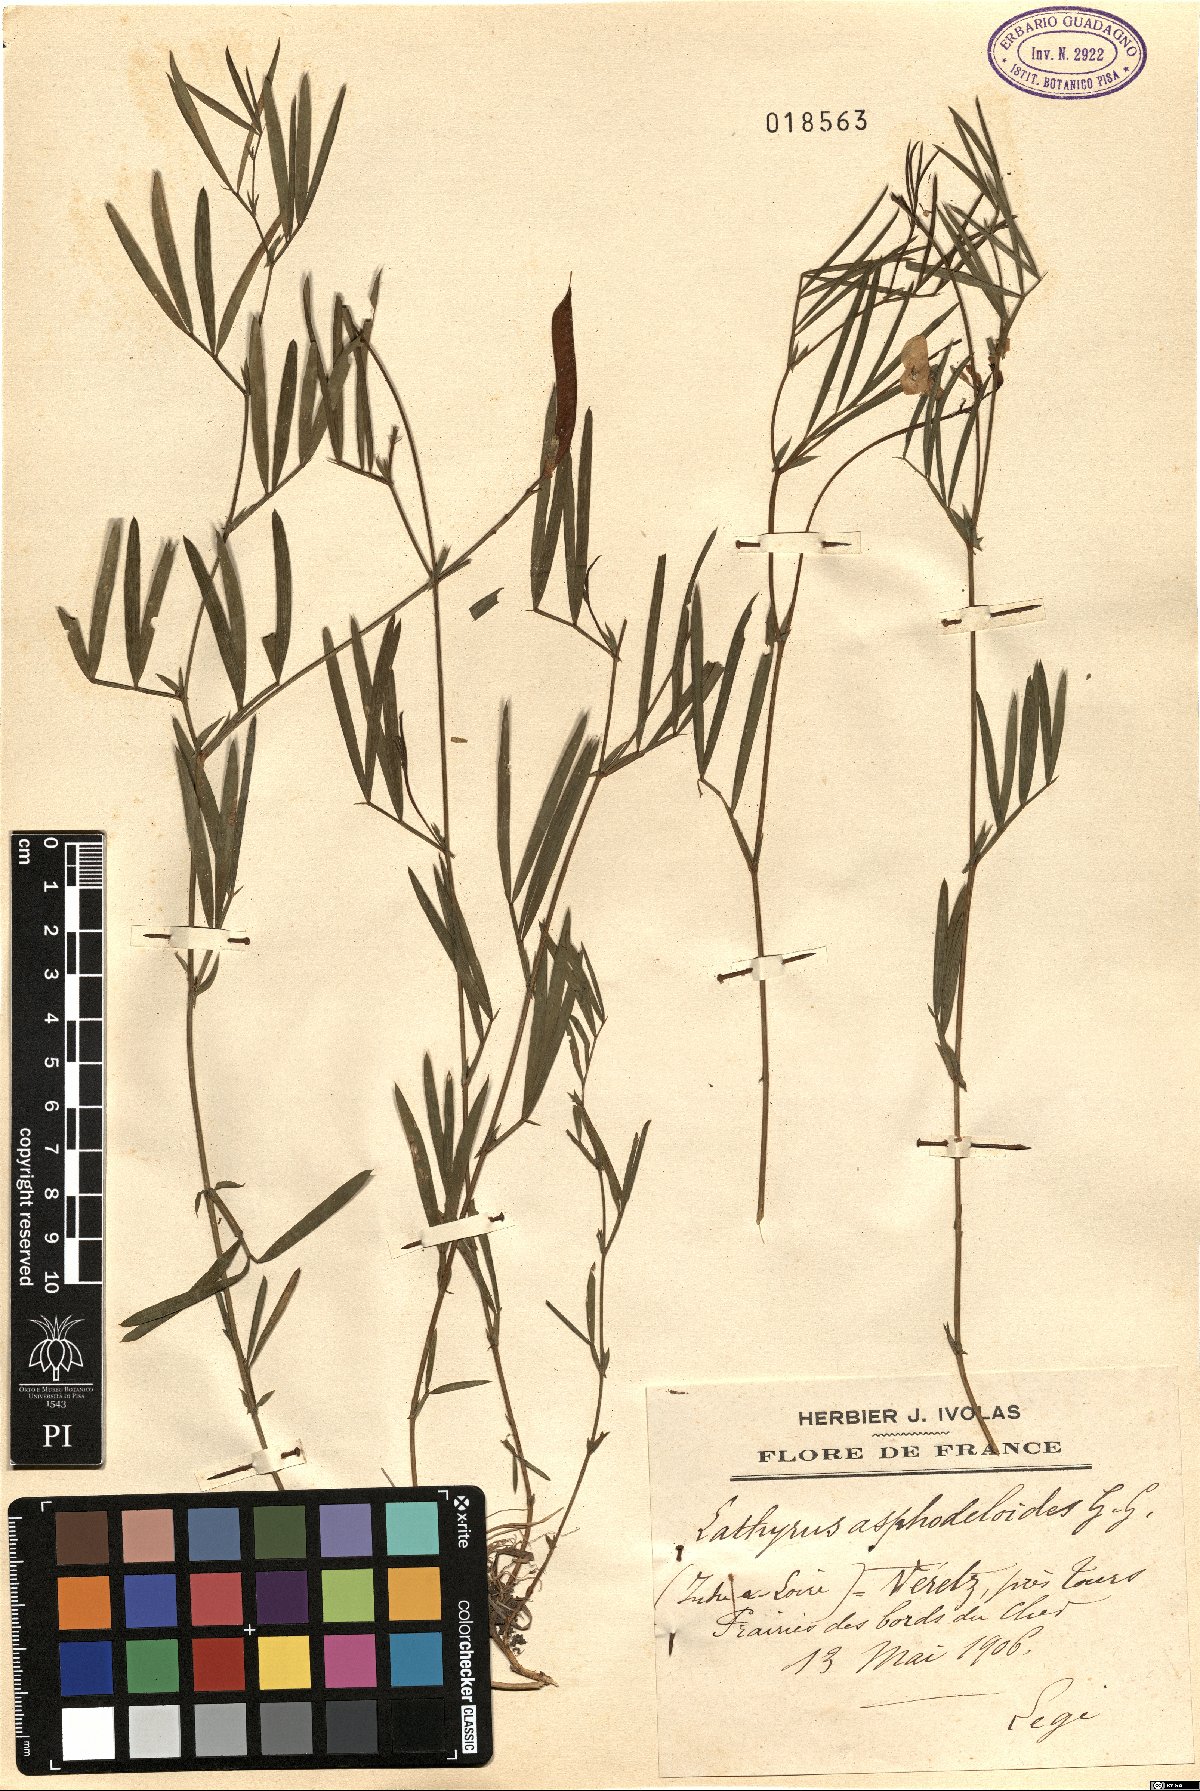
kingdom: Plantae
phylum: Tracheophyta
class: Magnoliopsida
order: Fabales
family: Fabaceae
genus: Lathyrus
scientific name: Lathyrus pannonicus
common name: Pea
